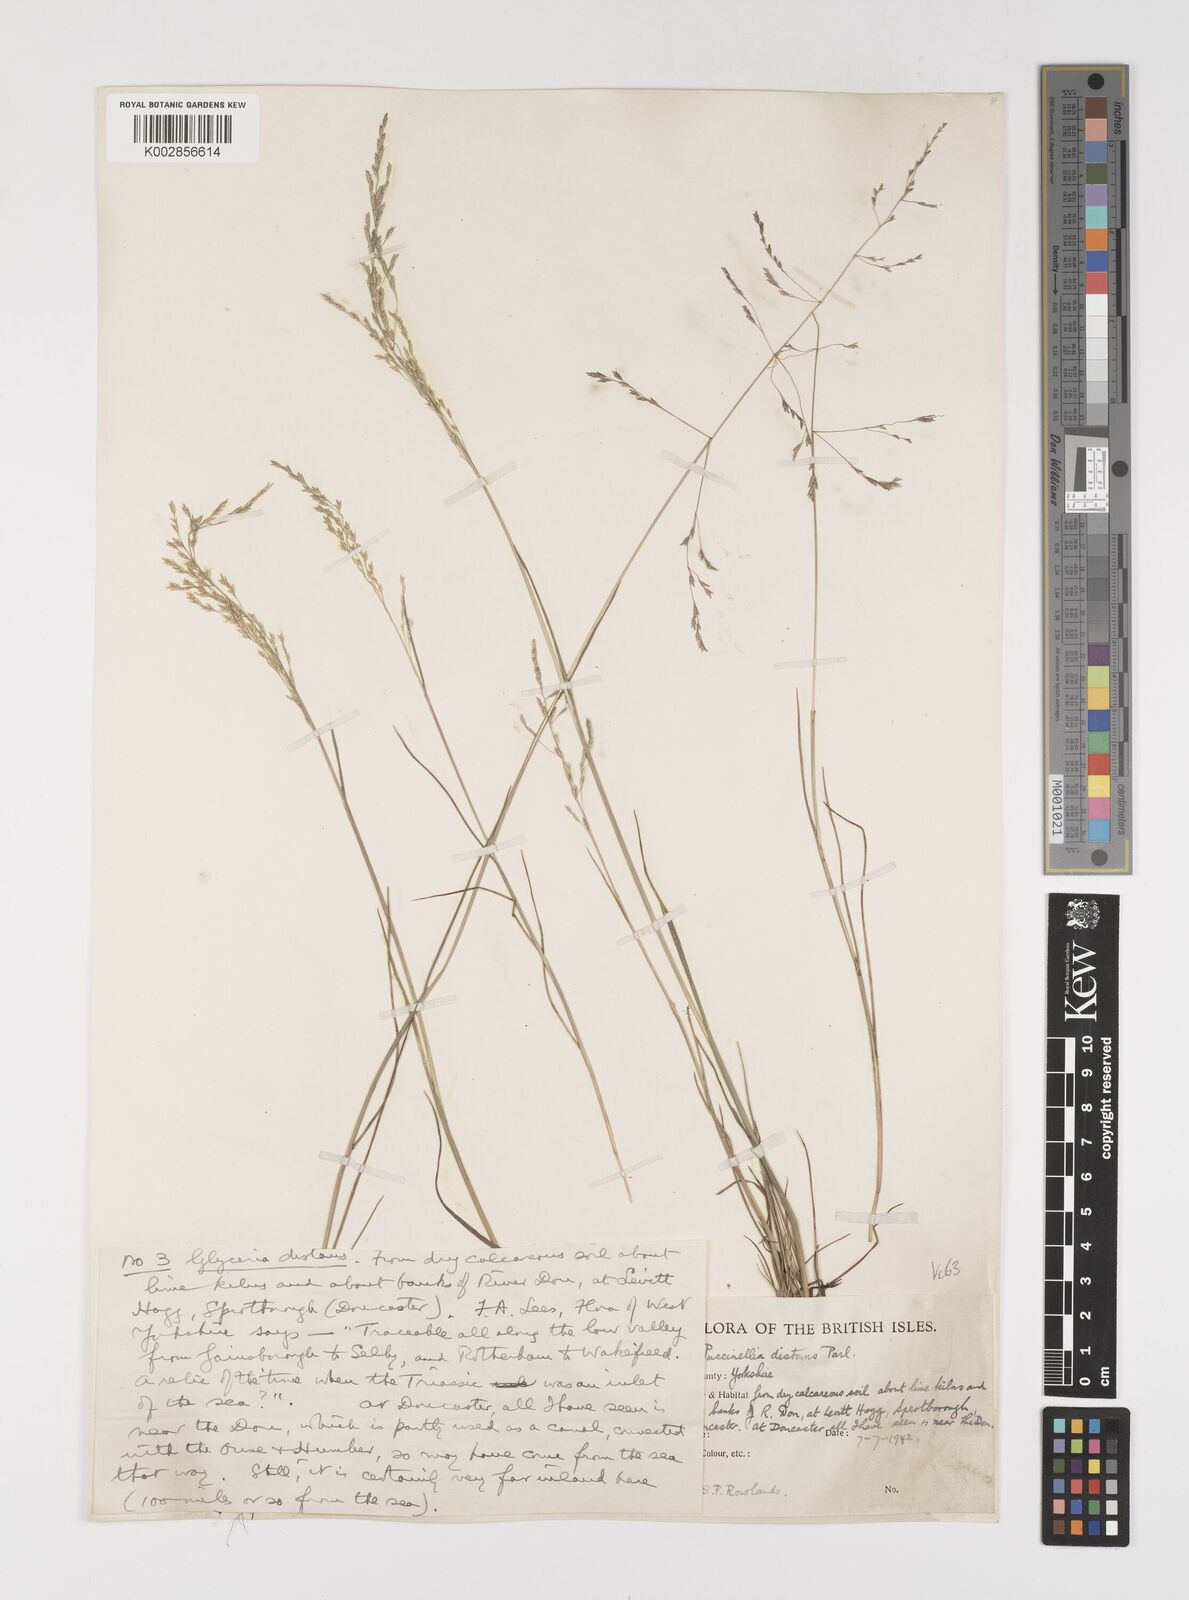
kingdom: Plantae
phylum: Tracheophyta
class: Liliopsida
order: Poales
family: Poaceae
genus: Puccinellia
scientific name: Puccinellia distans
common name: Weeping alkaligrass
